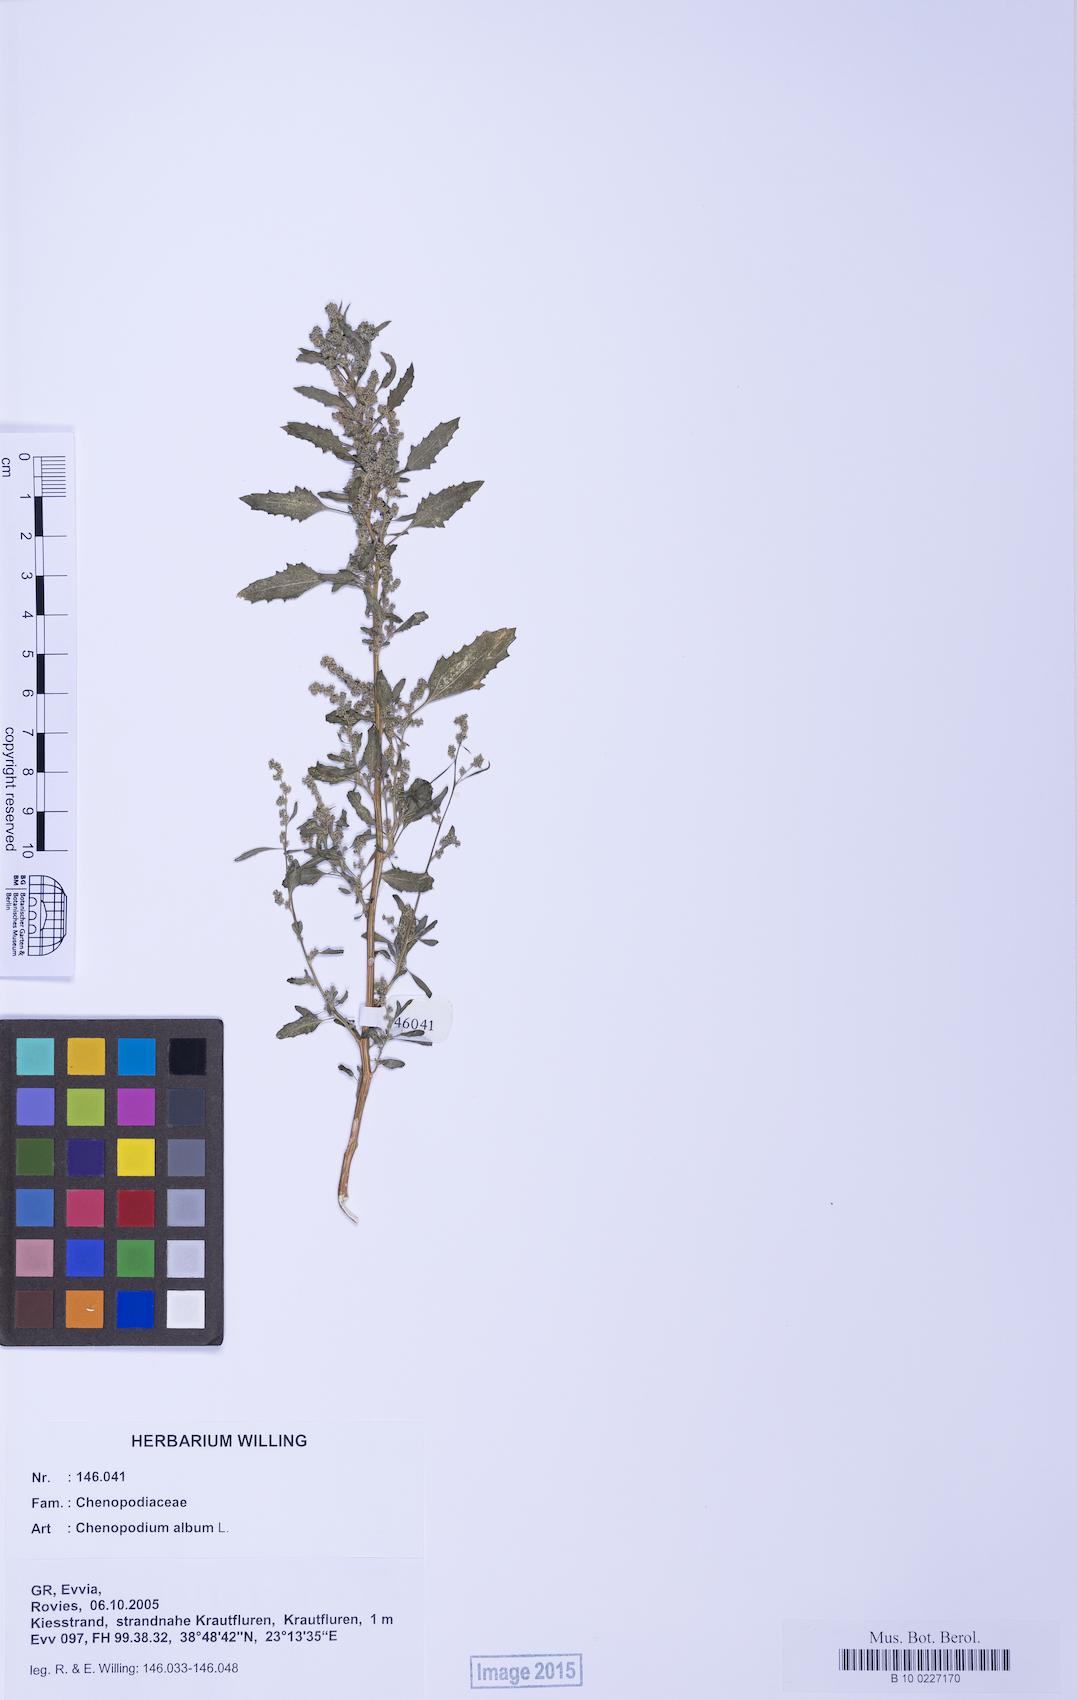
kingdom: Plantae
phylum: Tracheophyta
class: Magnoliopsida
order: Caryophyllales
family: Amaranthaceae
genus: Chenopodium
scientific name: Chenopodium album
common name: Fat-hen
